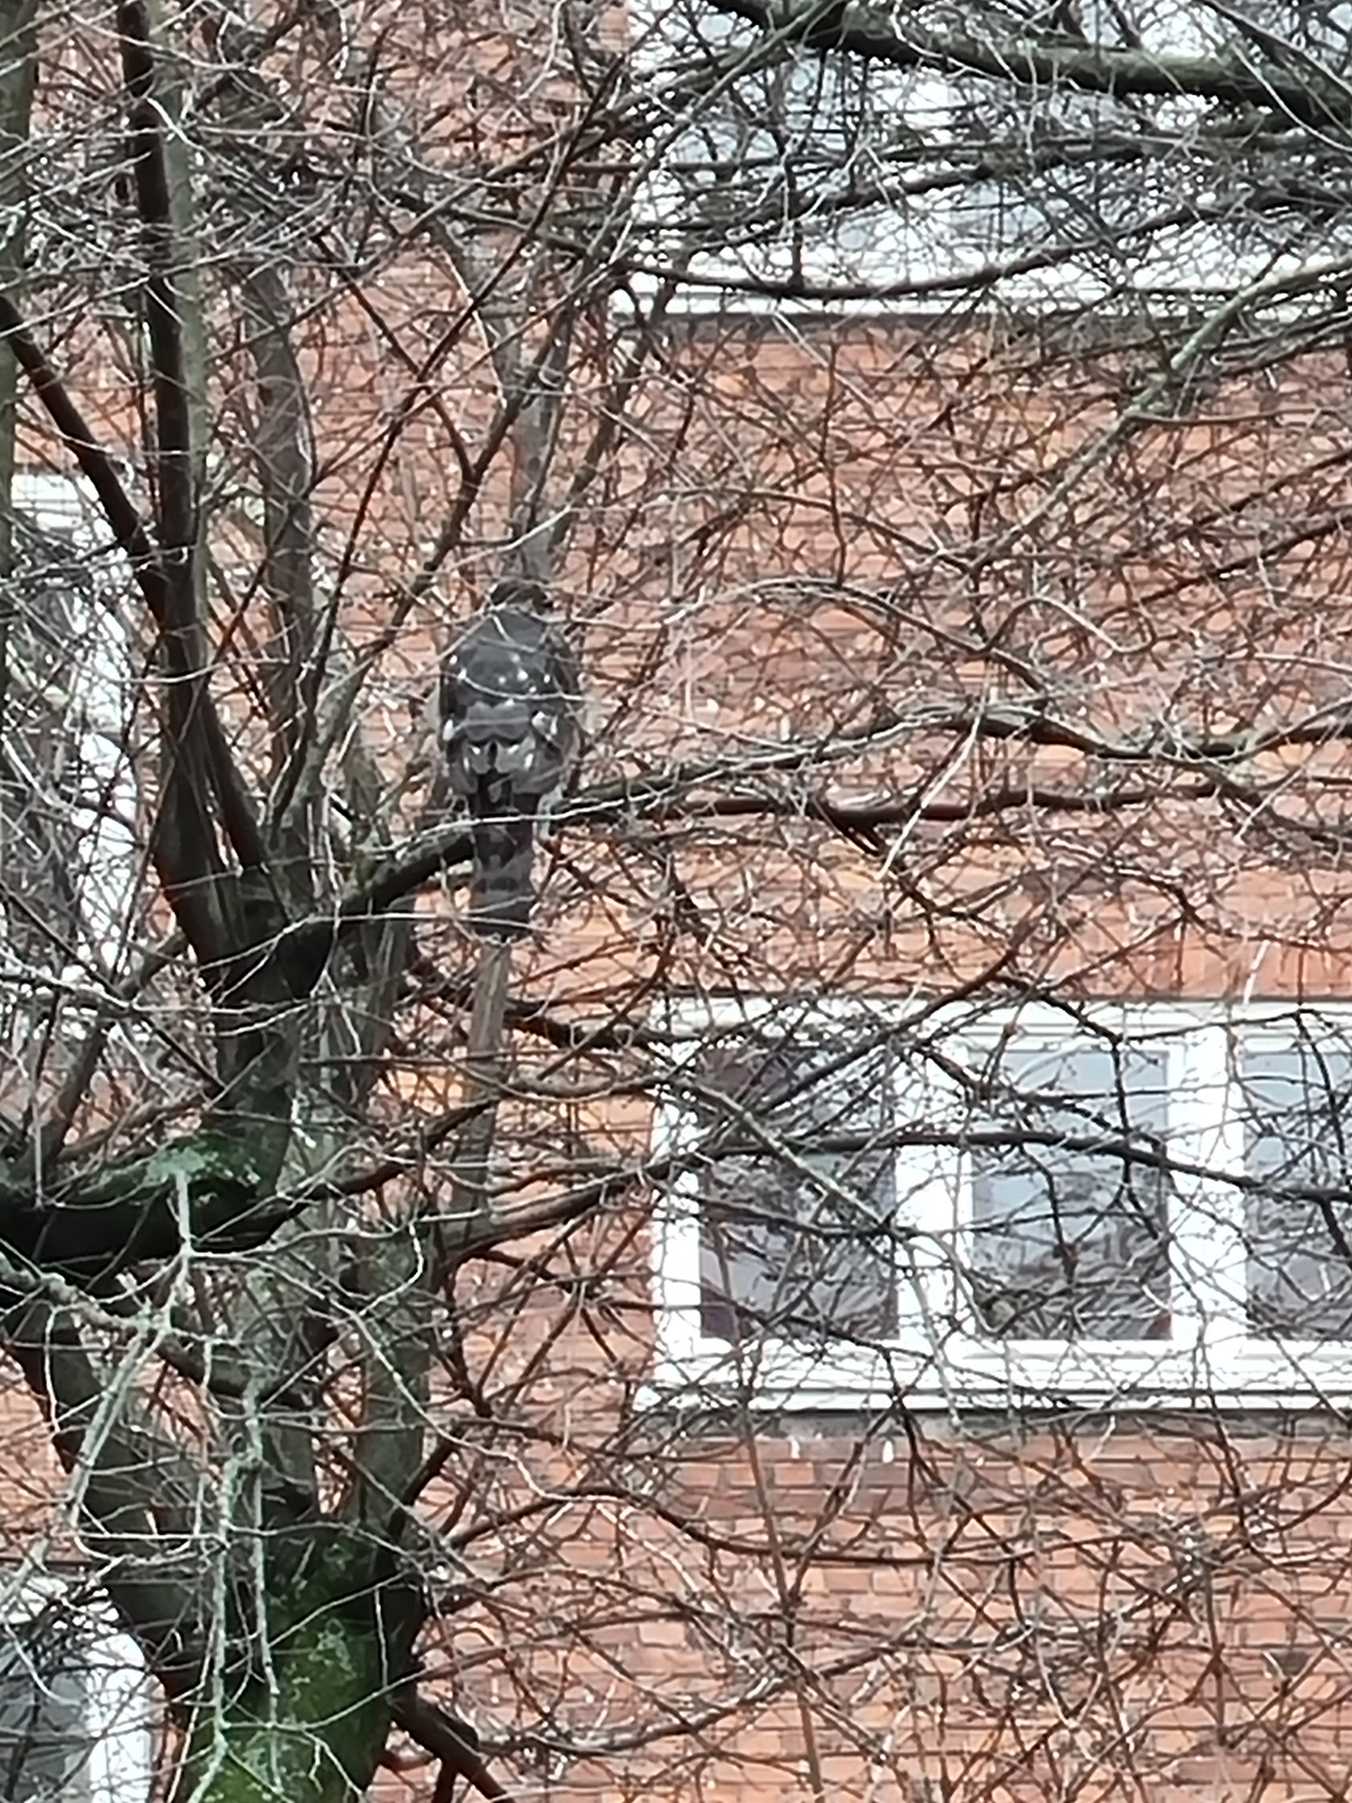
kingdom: Animalia
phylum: Chordata
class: Aves
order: Accipitriformes
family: Accipitridae
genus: Accipiter
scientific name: Accipiter nisus
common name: Spurvehøg
